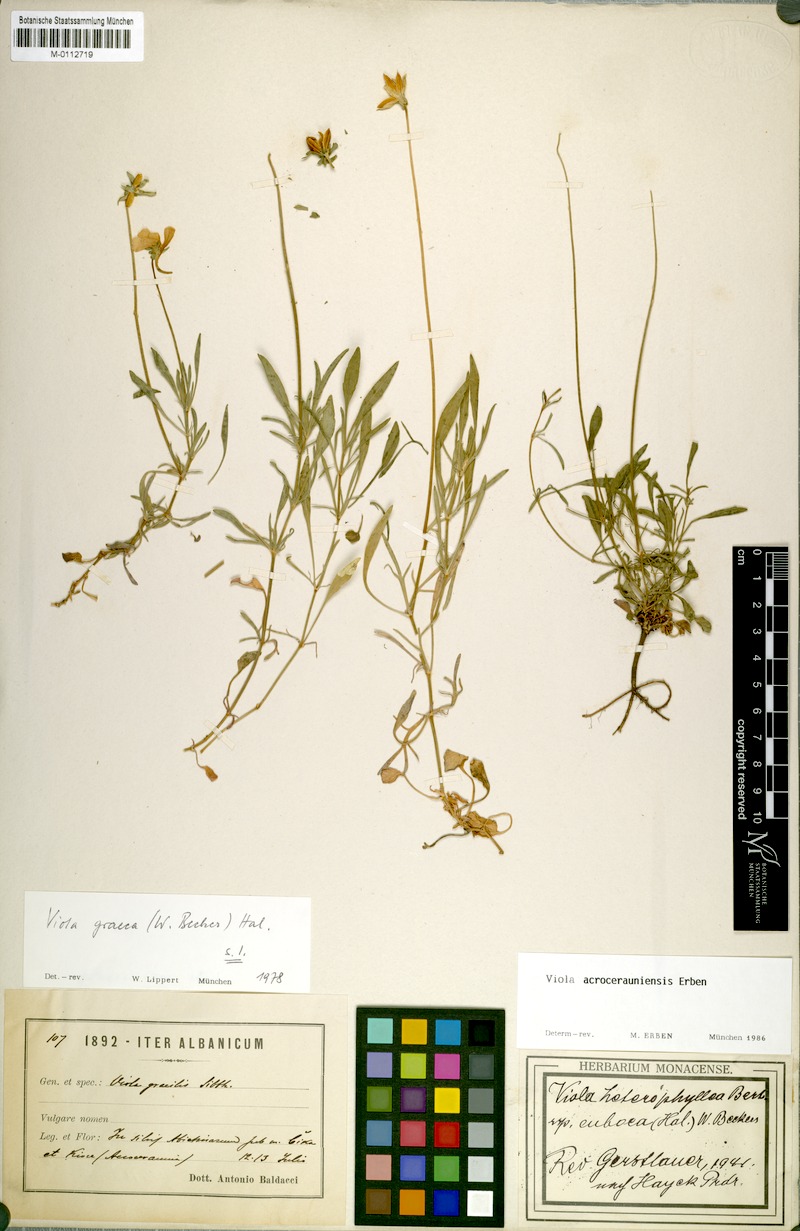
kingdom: Plantae
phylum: Tracheophyta
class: Magnoliopsida
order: Malpighiales
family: Violaceae
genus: Viola
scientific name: Viola acrocerauniensis
